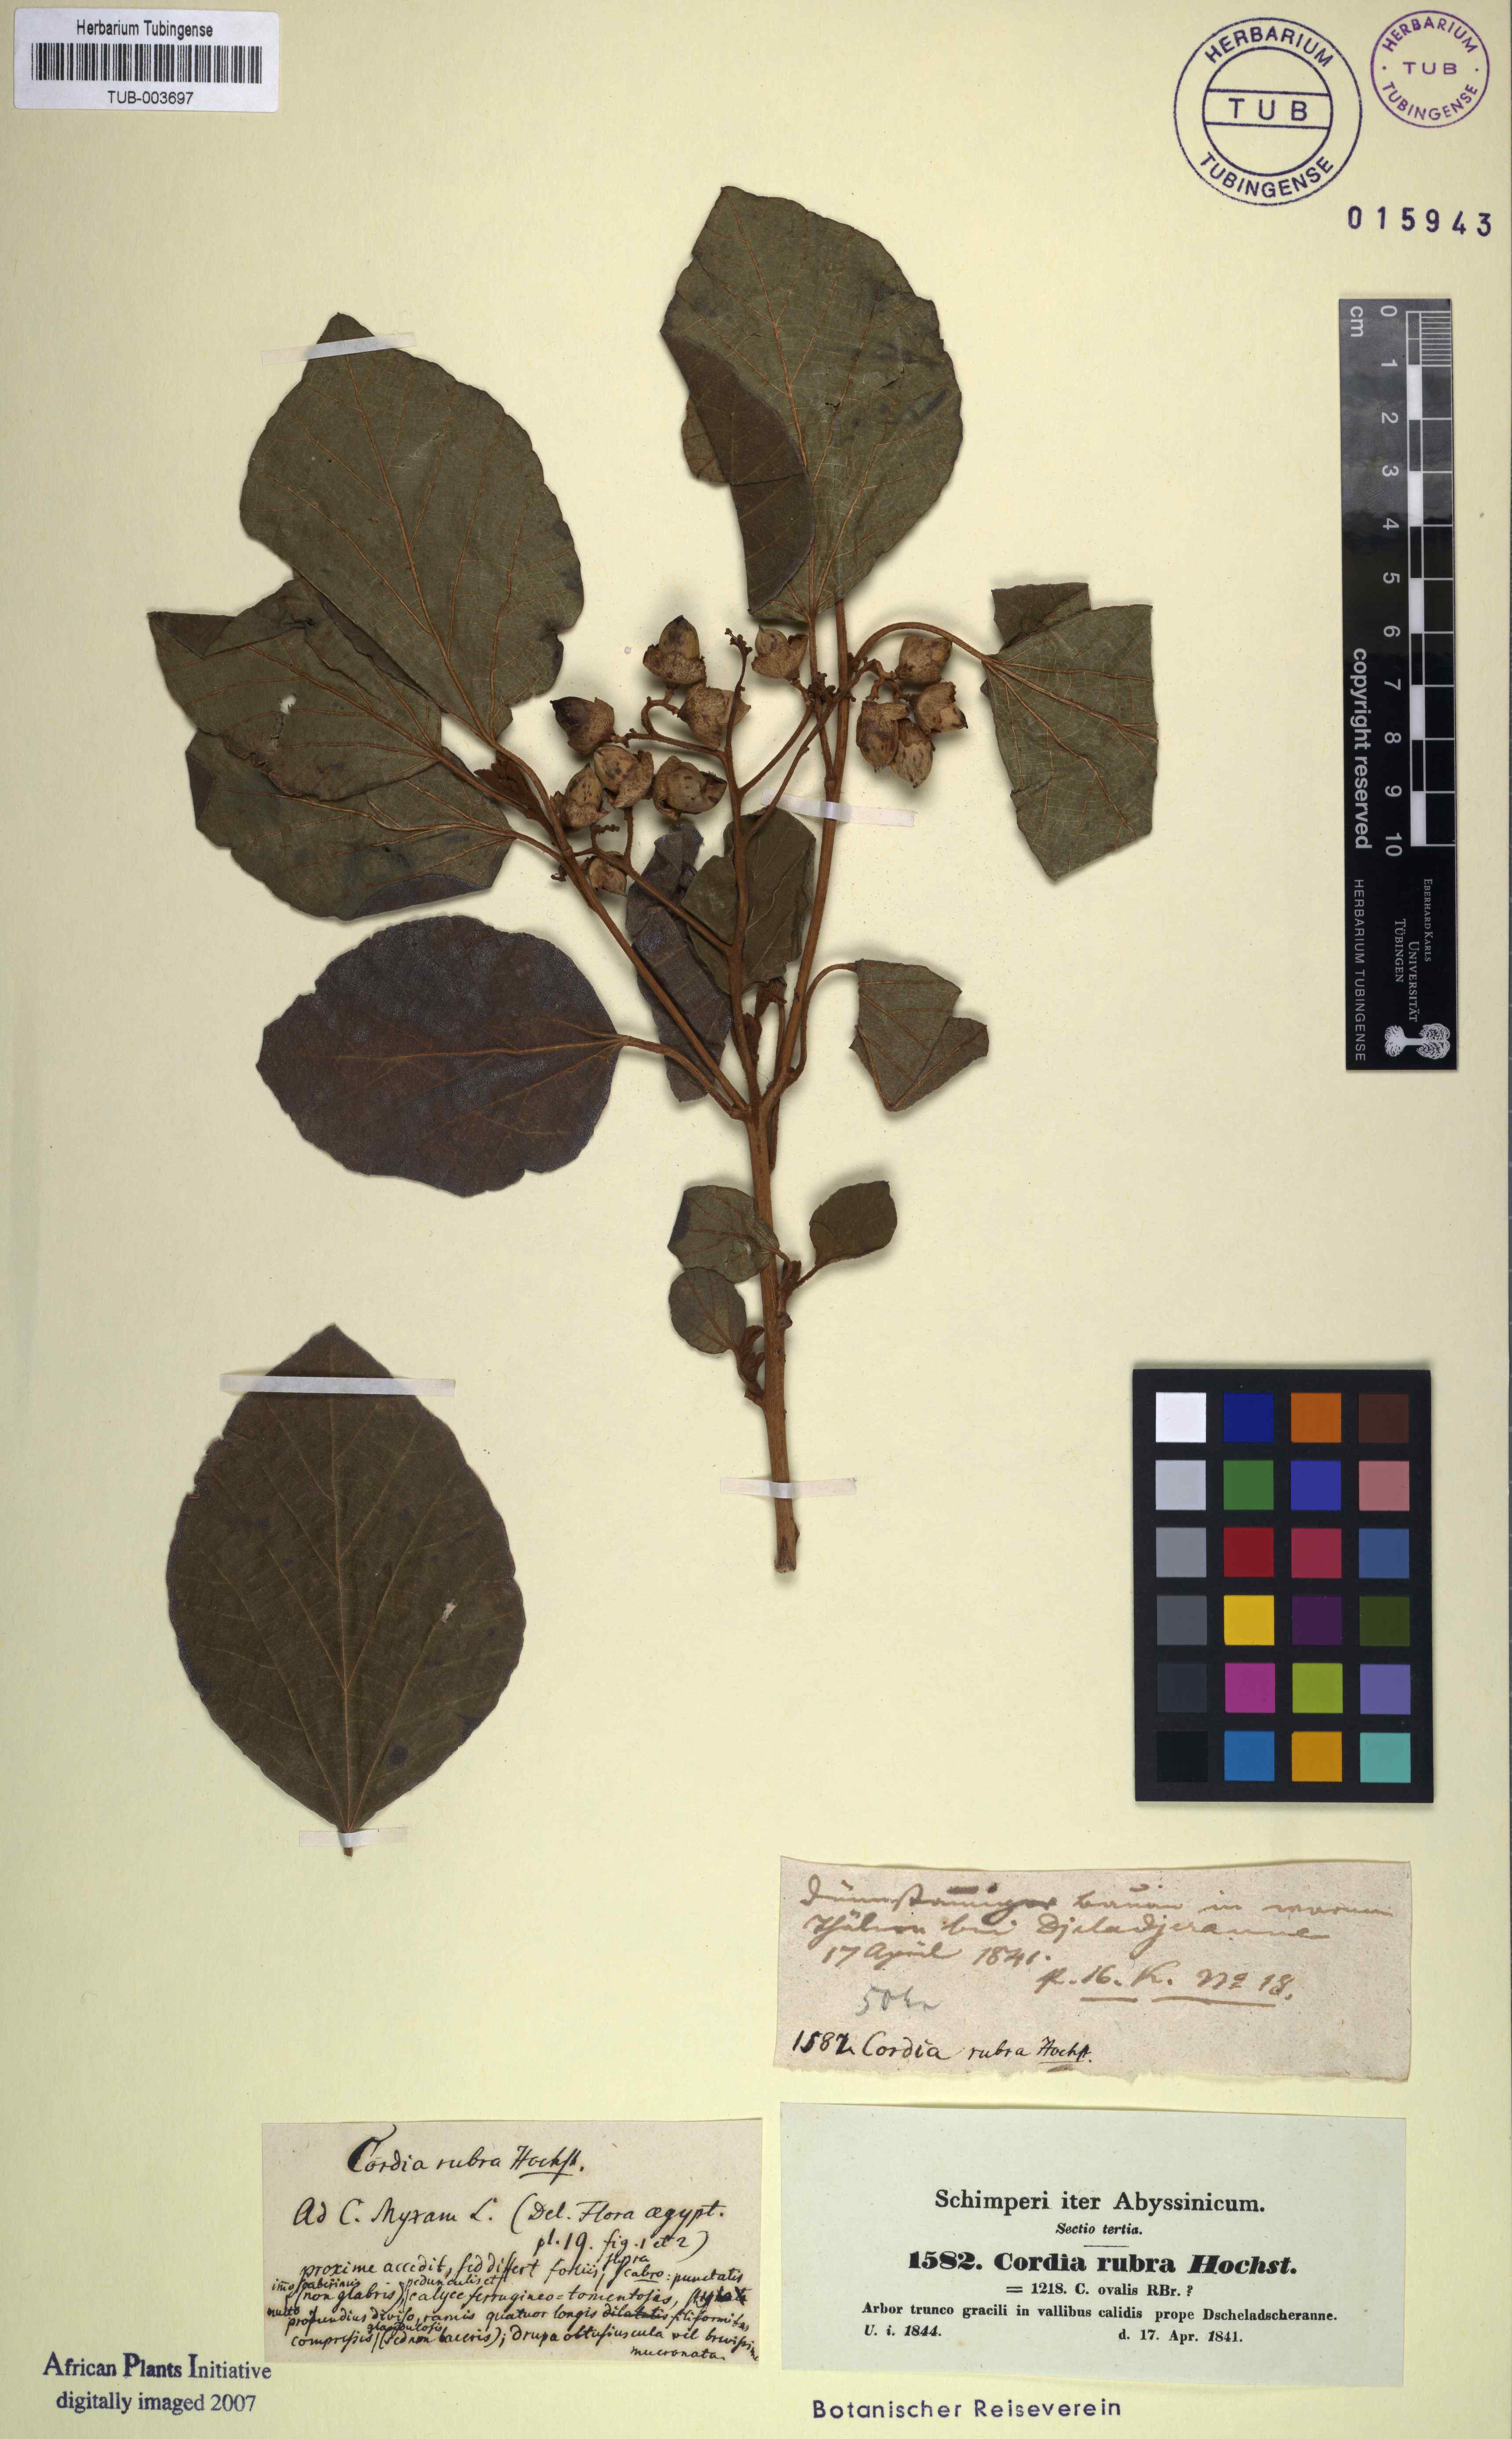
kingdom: Plantae
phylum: Tracheophyta
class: Magnoliopsida
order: Boraginales
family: Cordiaceae
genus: Cordia
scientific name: Cordia crenata
